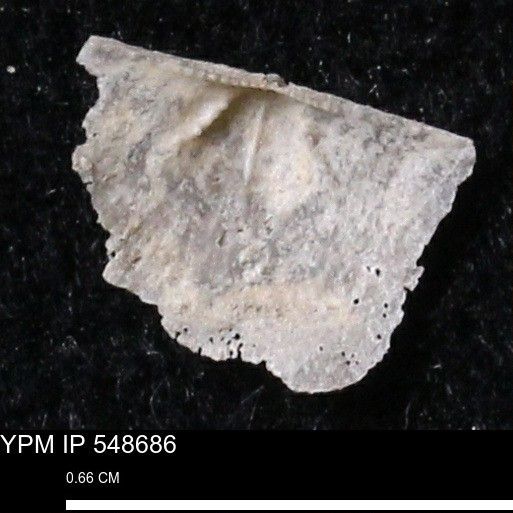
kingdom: Animalia
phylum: Brachiopoda
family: Stropheodontidae
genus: Protoleptostrophia
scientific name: Protoleptostrophia Strophomena perplana
